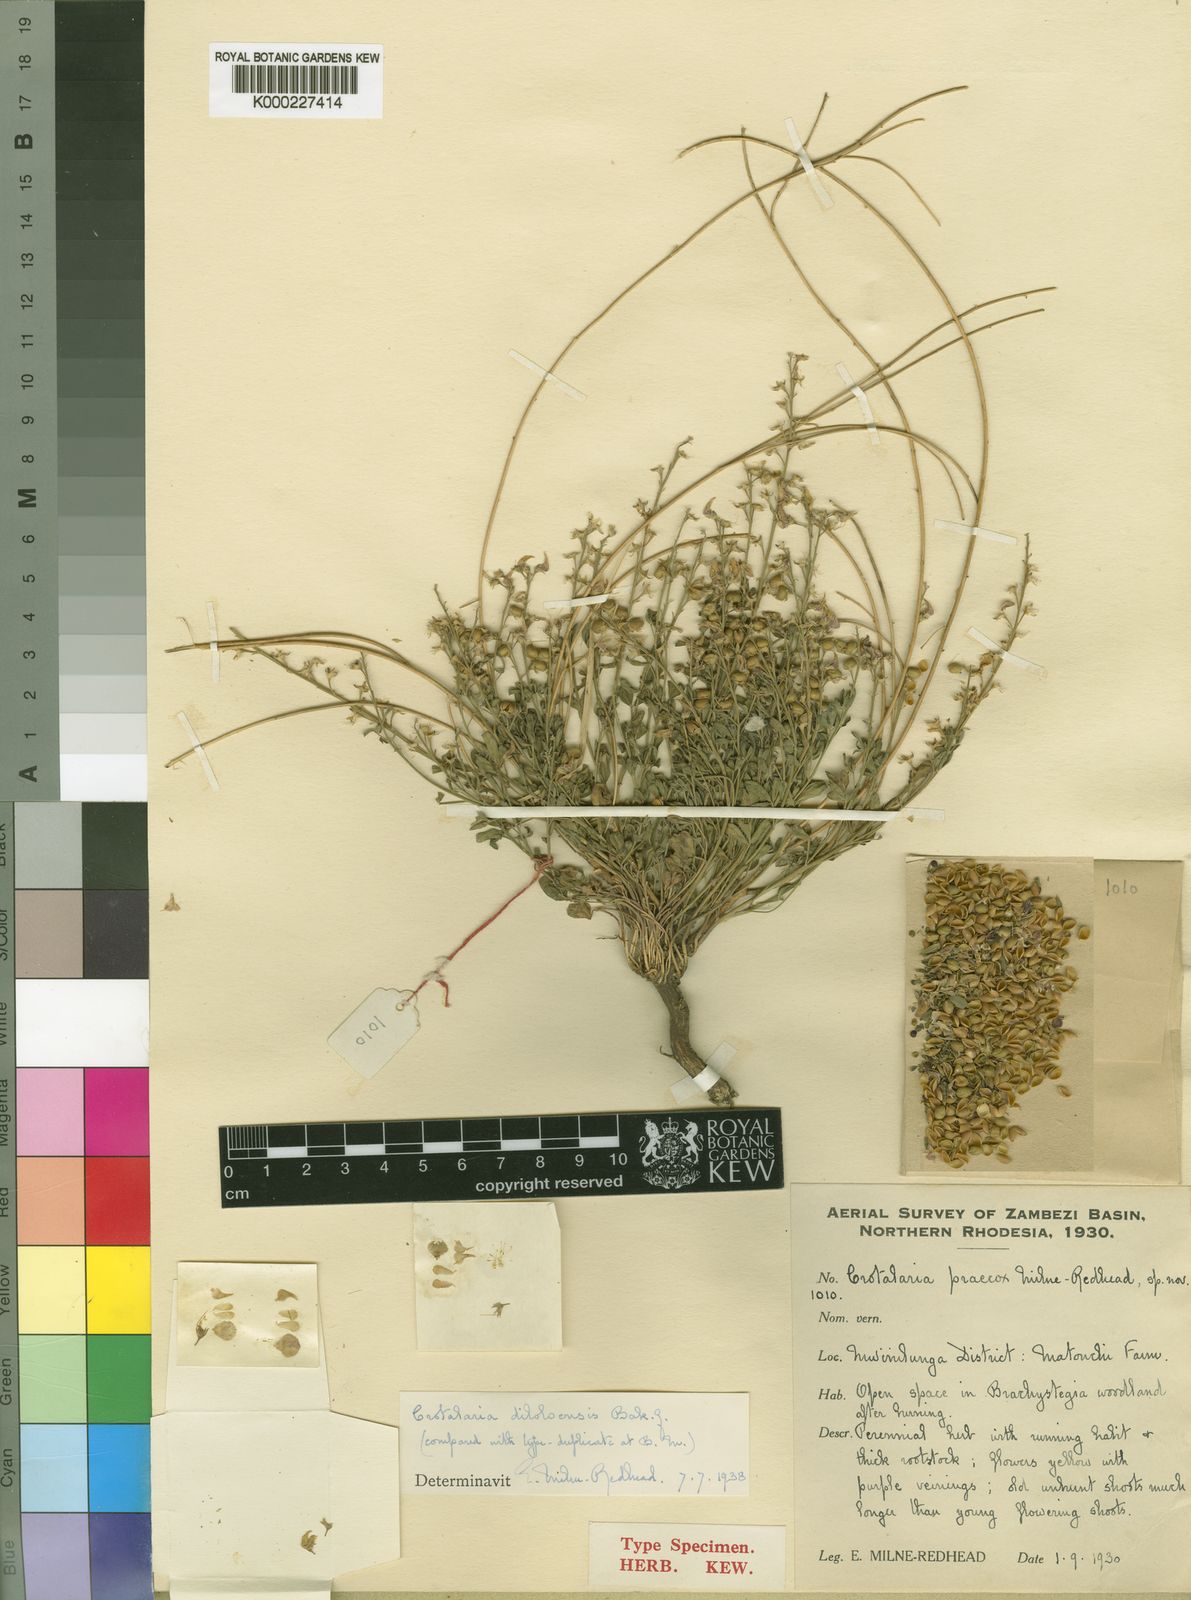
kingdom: Plantae
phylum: Tracheophyta
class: Magnoliopsida
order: Fabales
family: Fabaceae
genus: Crotalaria
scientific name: Crotalaria graminicola
